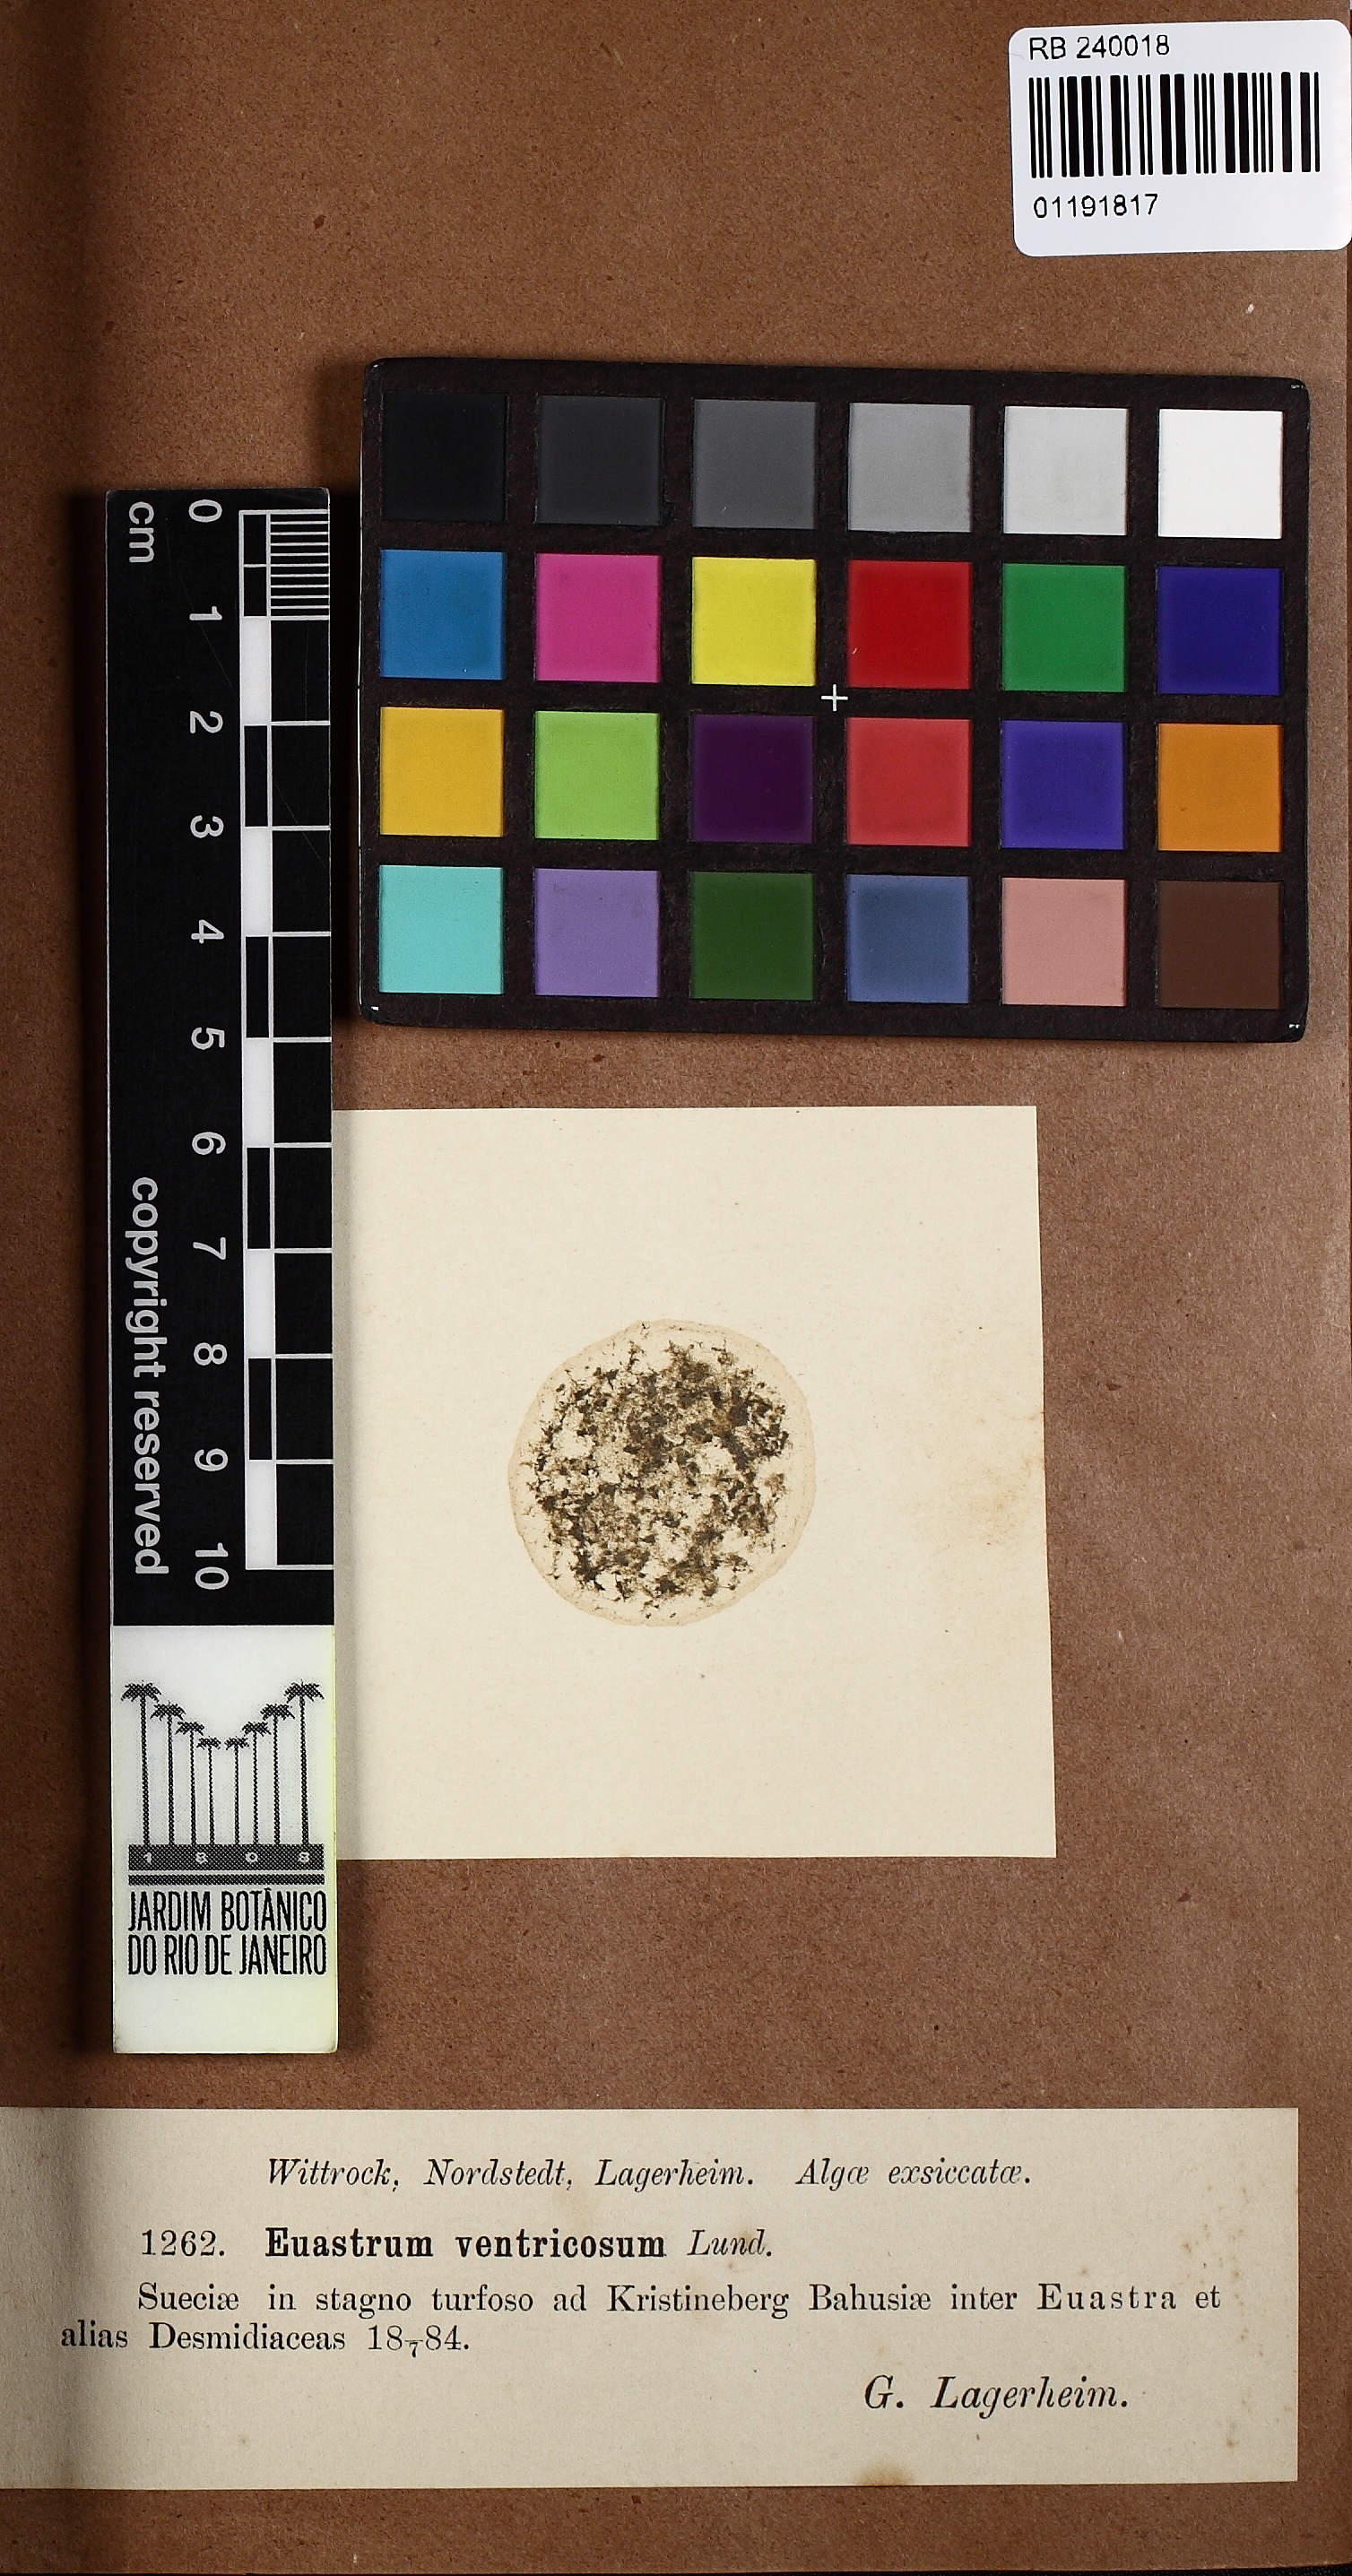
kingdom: Plantae
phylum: Charophyta
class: Conjugatophyceae
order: Desmidiales
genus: Euastrum
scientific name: Euastrum ventricosum
